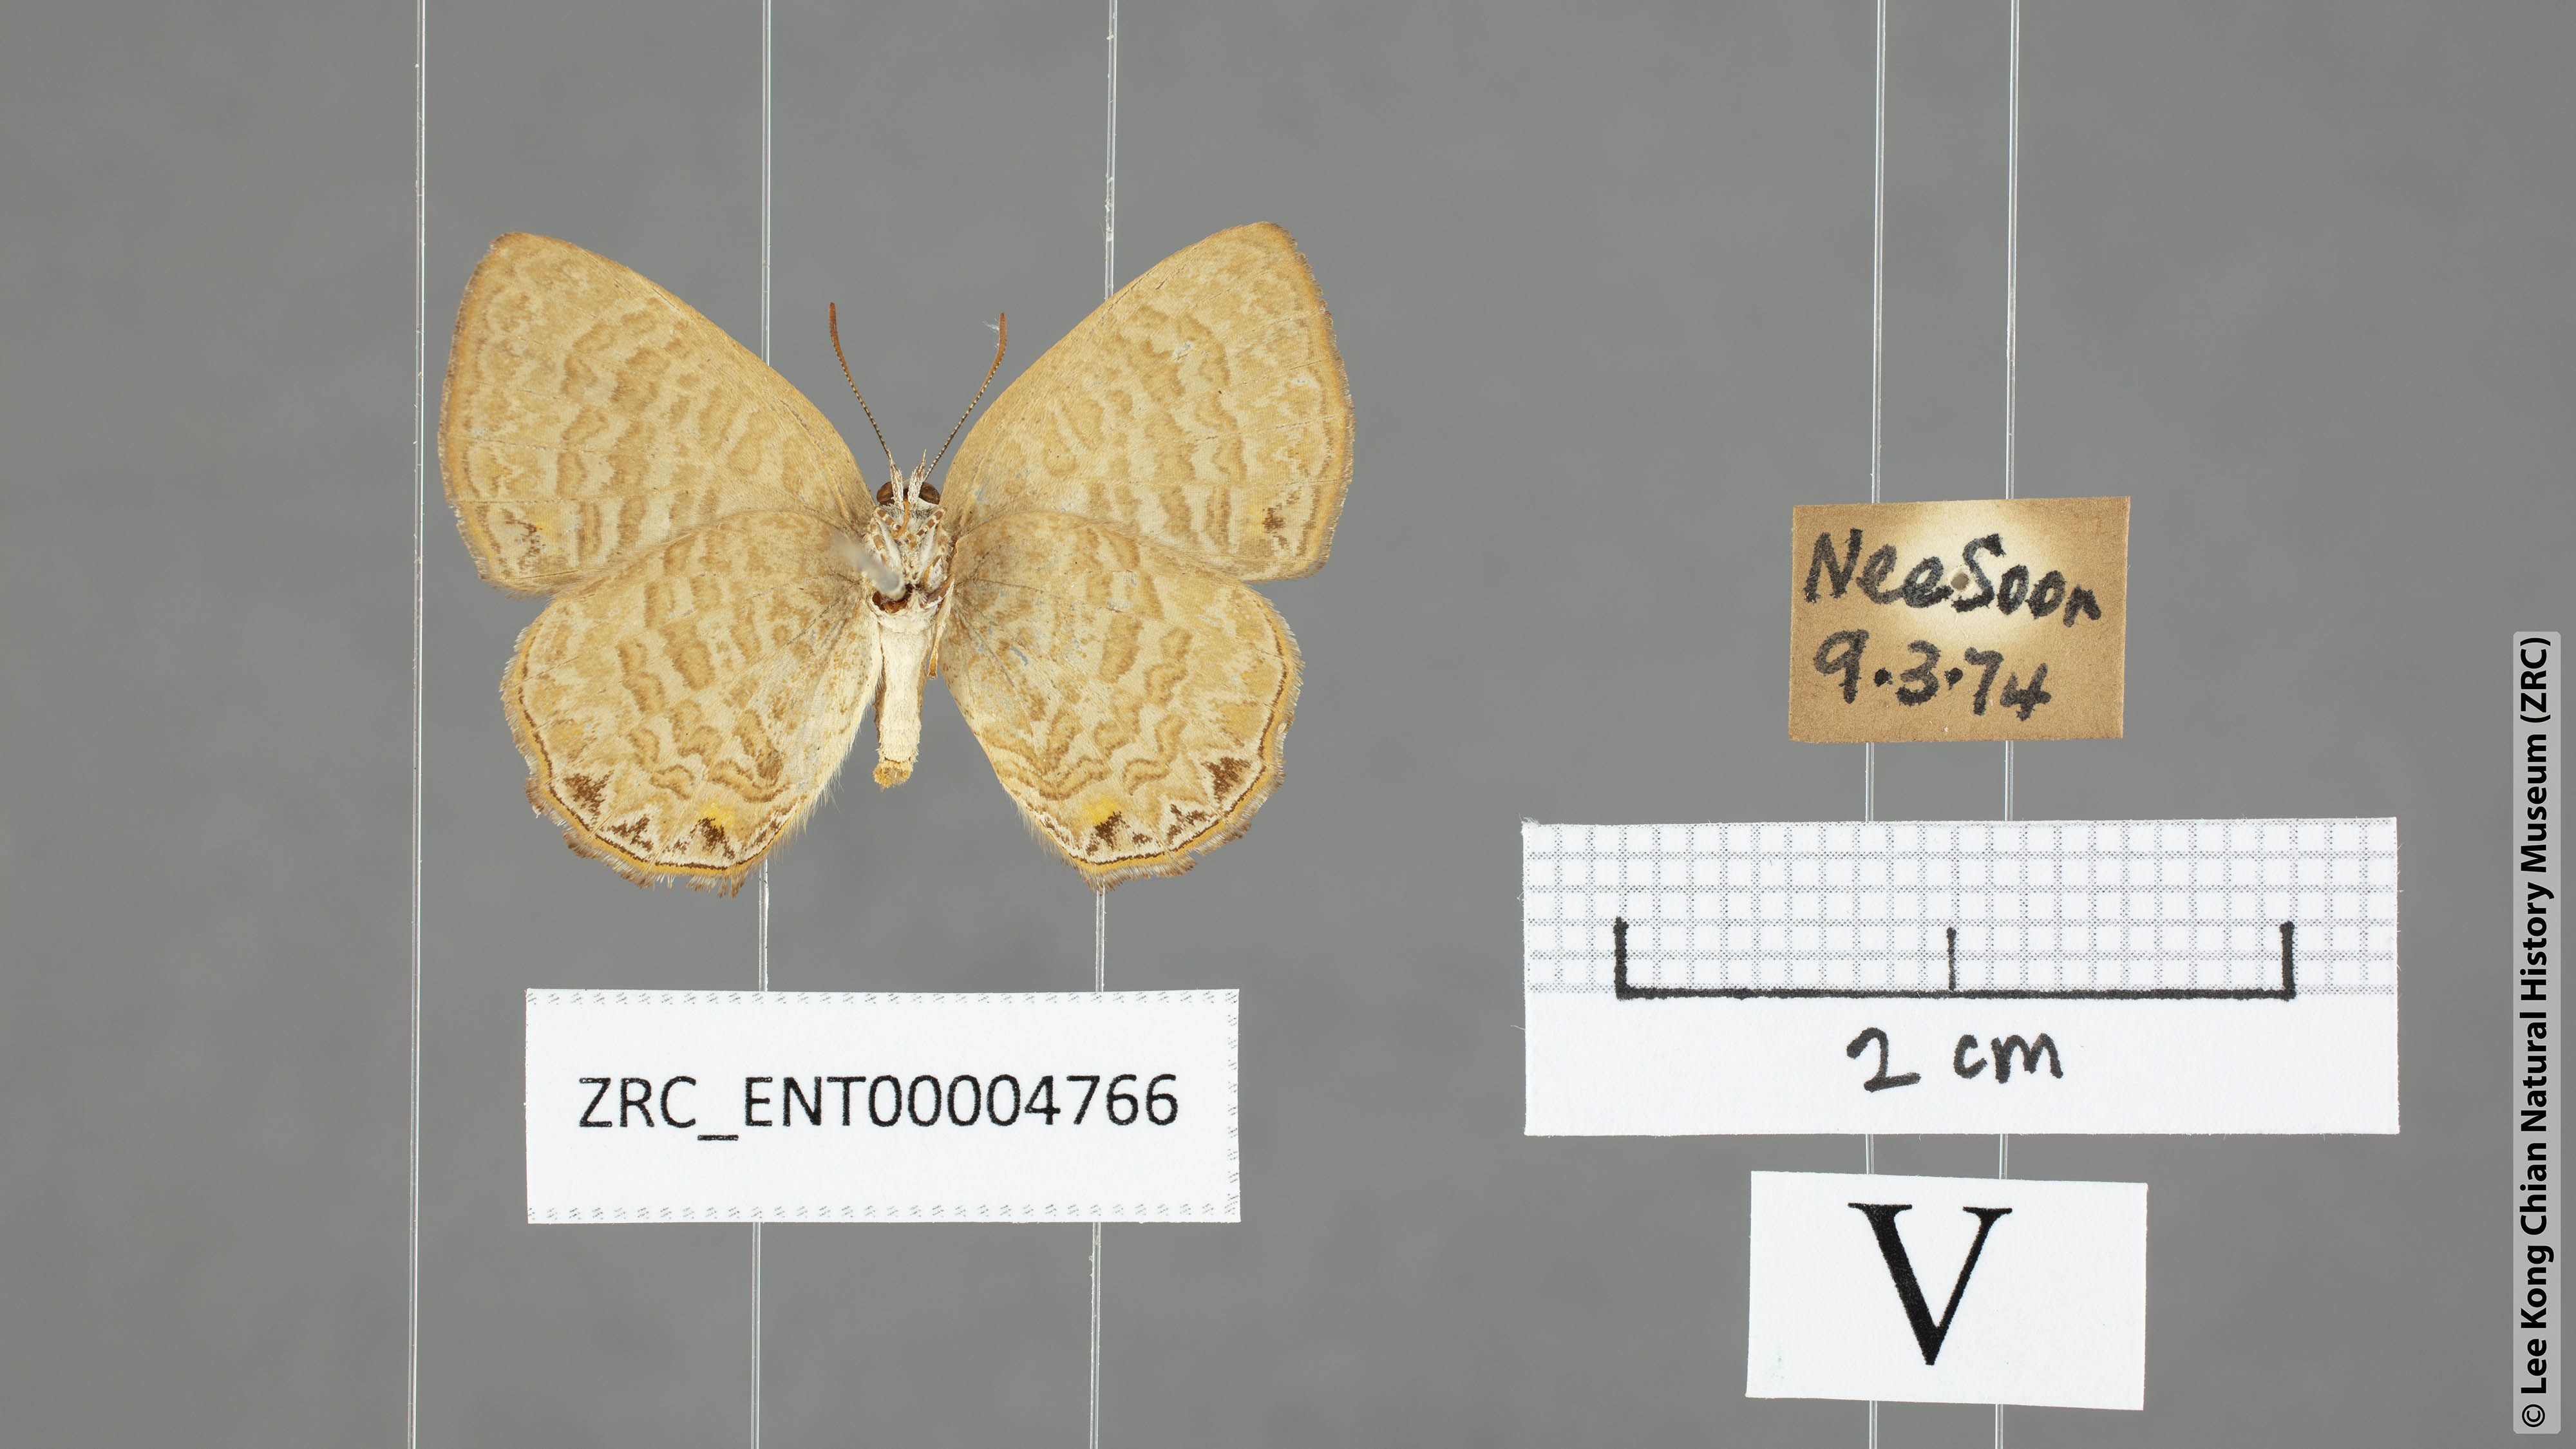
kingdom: Animalia
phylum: Arthropoda
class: Insecta
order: Lepidoptera
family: Lycaenidae
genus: Poritia
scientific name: Poritia philota
